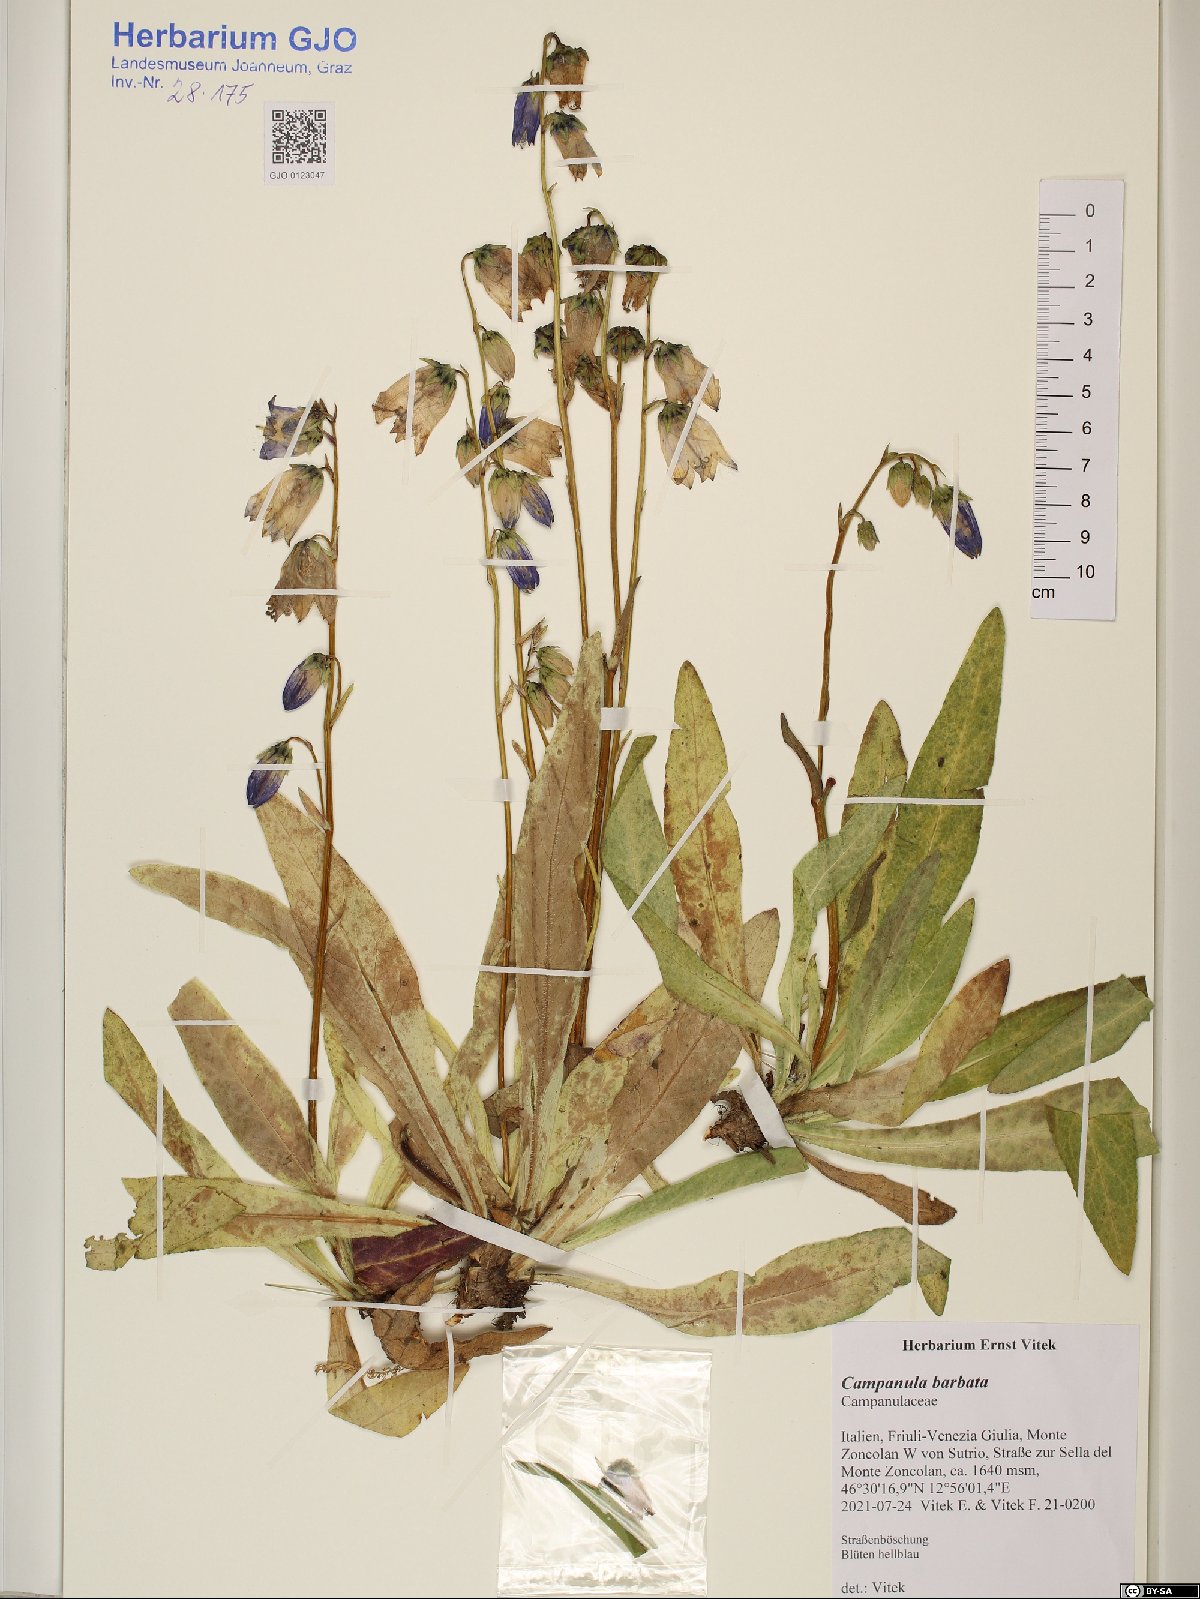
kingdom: Plantae
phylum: Tracheophyta
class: Magnoliopsida
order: Asterales
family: Campanulaceae
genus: Campanula
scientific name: Campanula barbata
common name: Bearded bellflower
